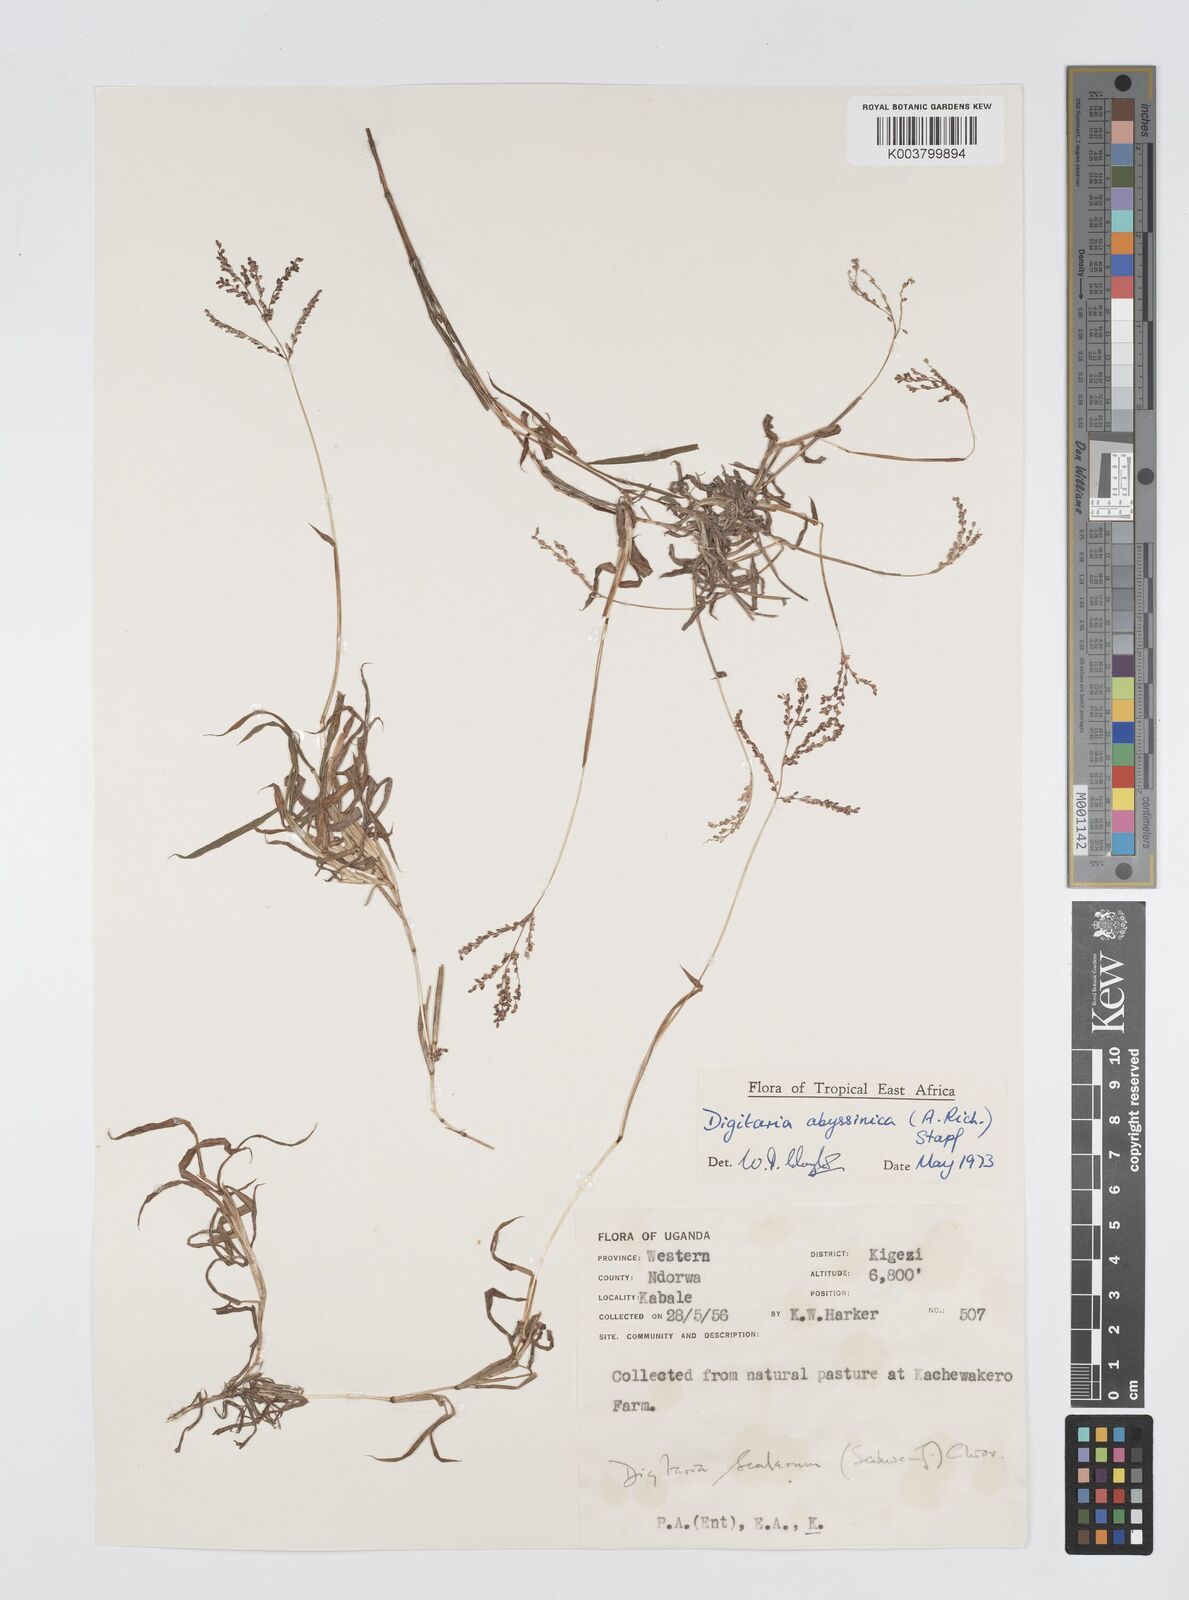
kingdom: Plantae
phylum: Tracheophyta
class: Liliopsida
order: Poales
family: Poaceae
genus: Digitaria
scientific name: Digitaria abyssinica
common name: African couchgrass
